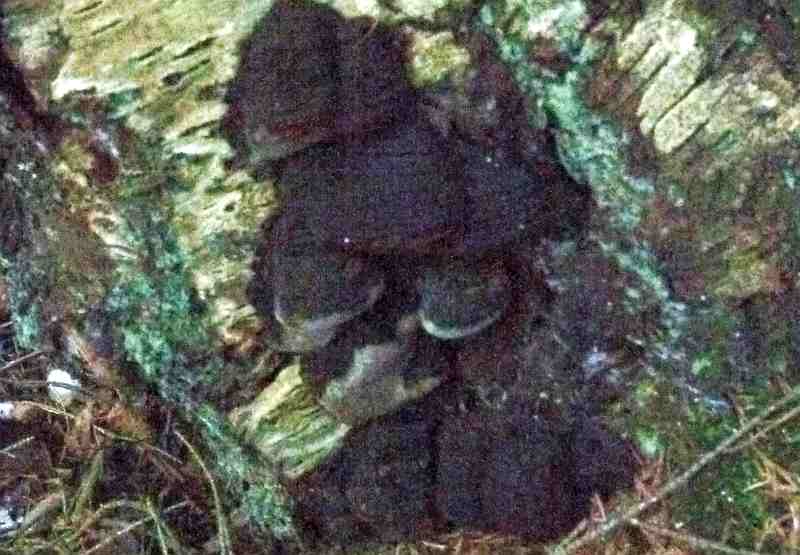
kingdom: Fungi
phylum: Basidiomycota
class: Agaricomycetes
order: Hymenochaetales
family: Hymenochaetaceae
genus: Phellinus
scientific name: Phellinus lundellii
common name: birke-ildporesvamp
